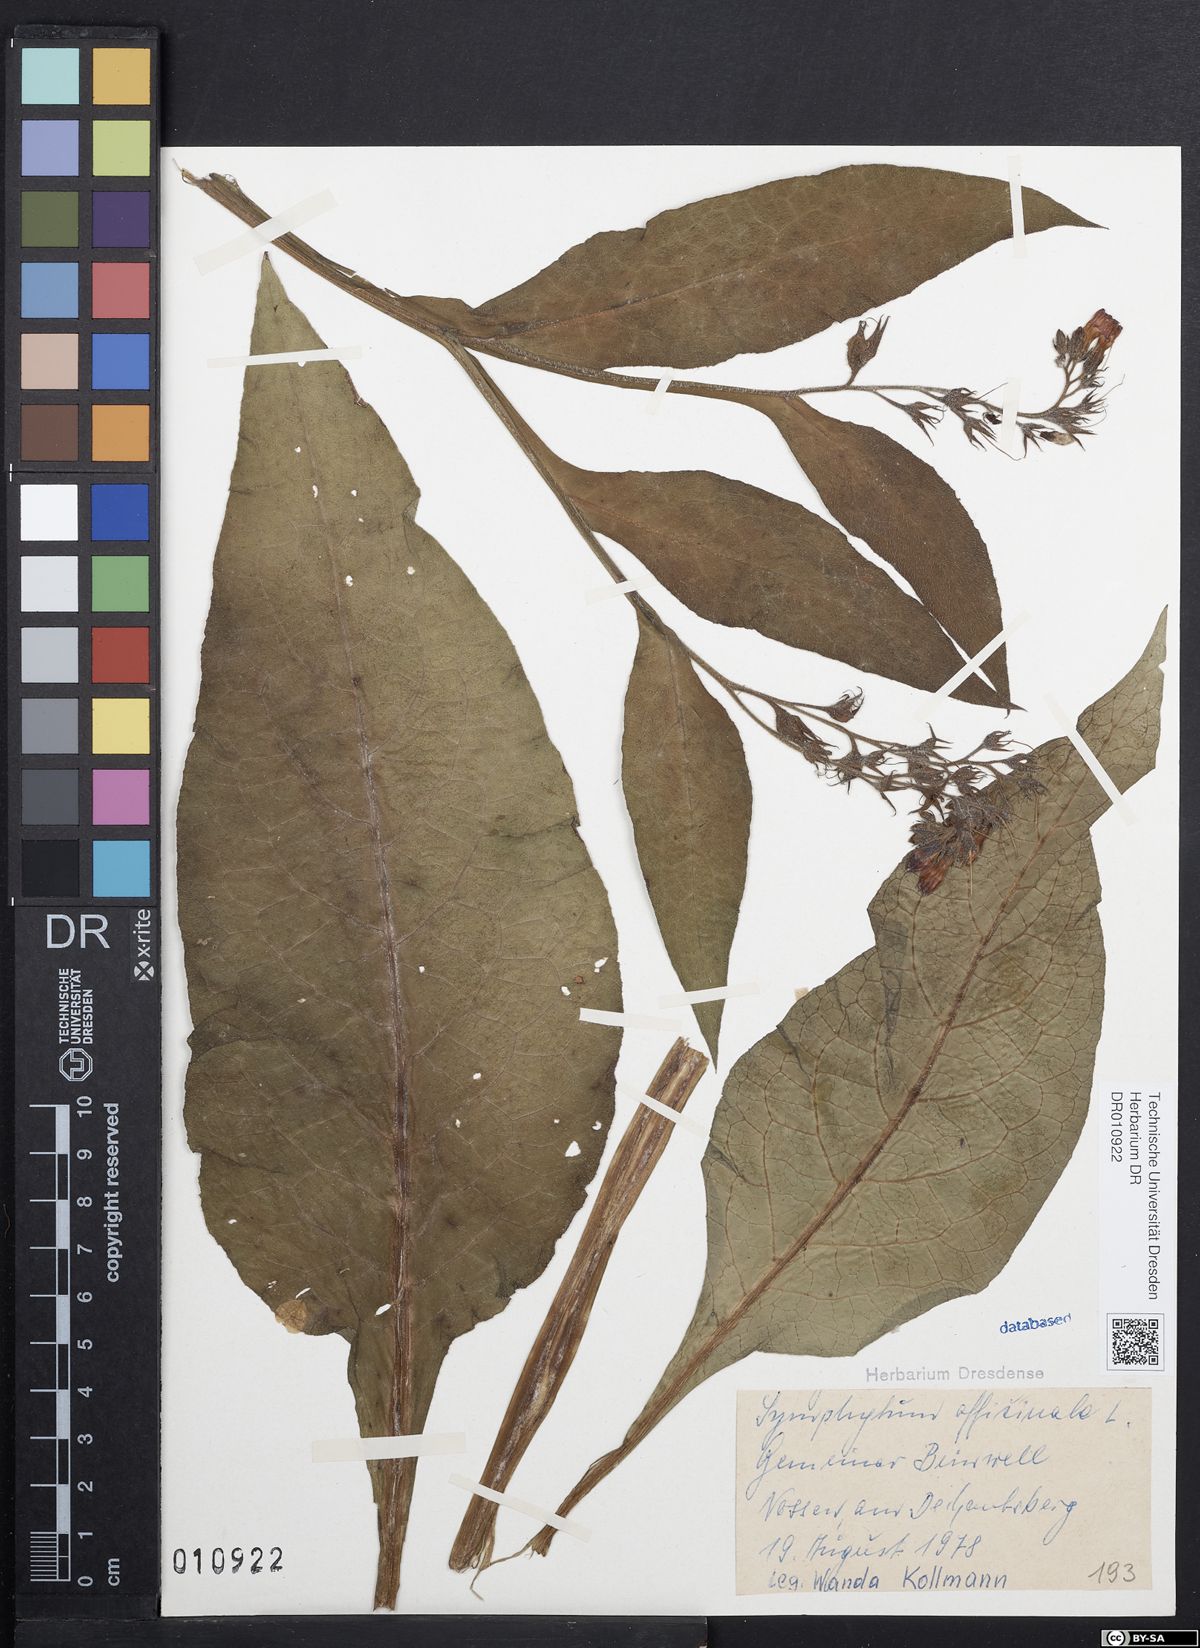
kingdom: Plantae
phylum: Tracheophyta
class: Magnoliopsida
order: Boraginales
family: Boraginaceae
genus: Symphytum
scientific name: Symphytum officinale
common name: Common comfrey
